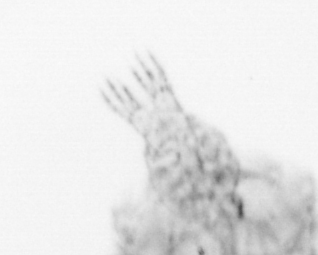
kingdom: Animalia
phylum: Arthropoda
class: Copepoda
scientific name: Copepoda
